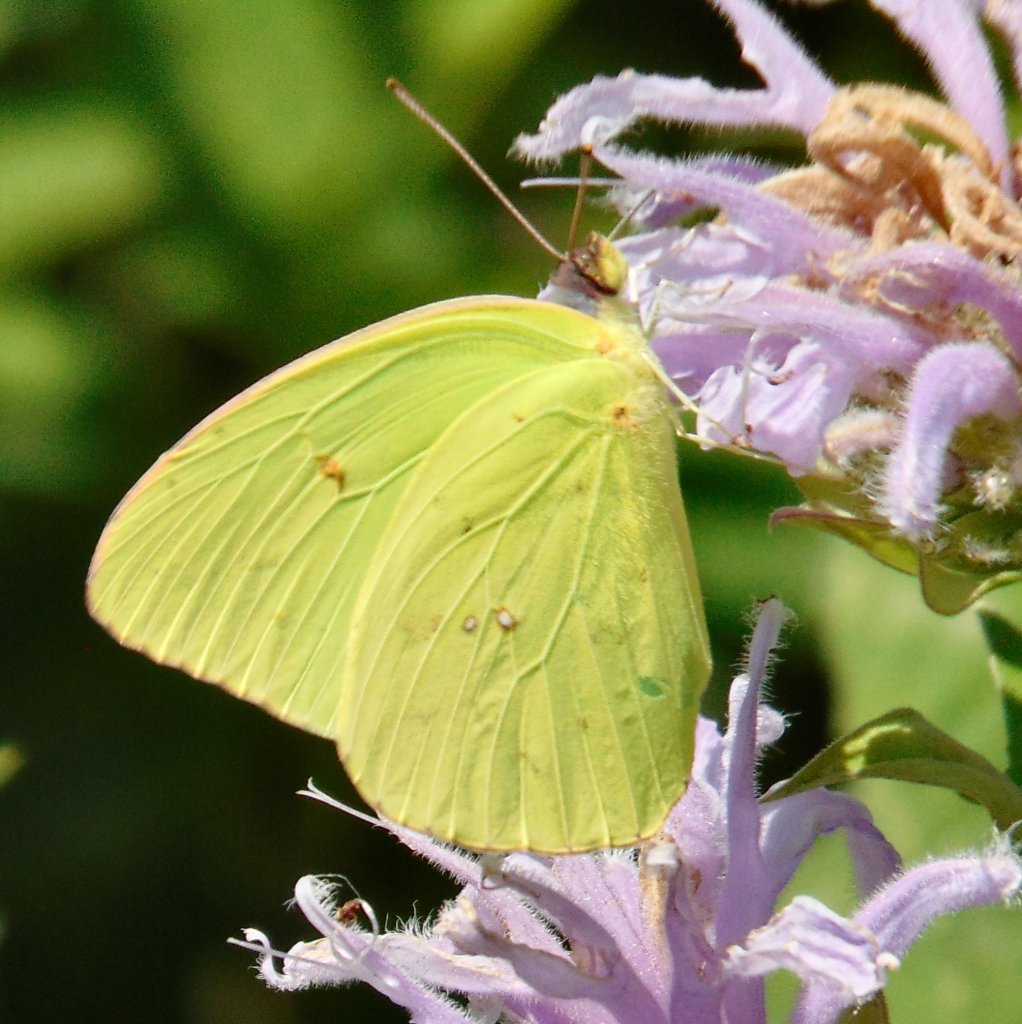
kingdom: Animalia
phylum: Arthropoda
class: Insecta
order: Lepidoptera
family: Pieridae
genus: Phoebis
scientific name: Phoebis sennae
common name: Cloudless Sulphur
